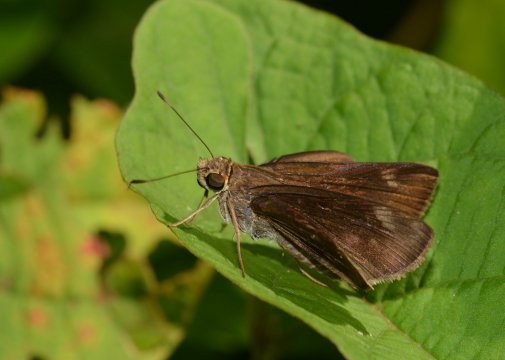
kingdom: Animalia
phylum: Arthropoda
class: Insecta
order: Lepidoptera
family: Hesperiidae
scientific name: Hesperiidae
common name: Skippers
